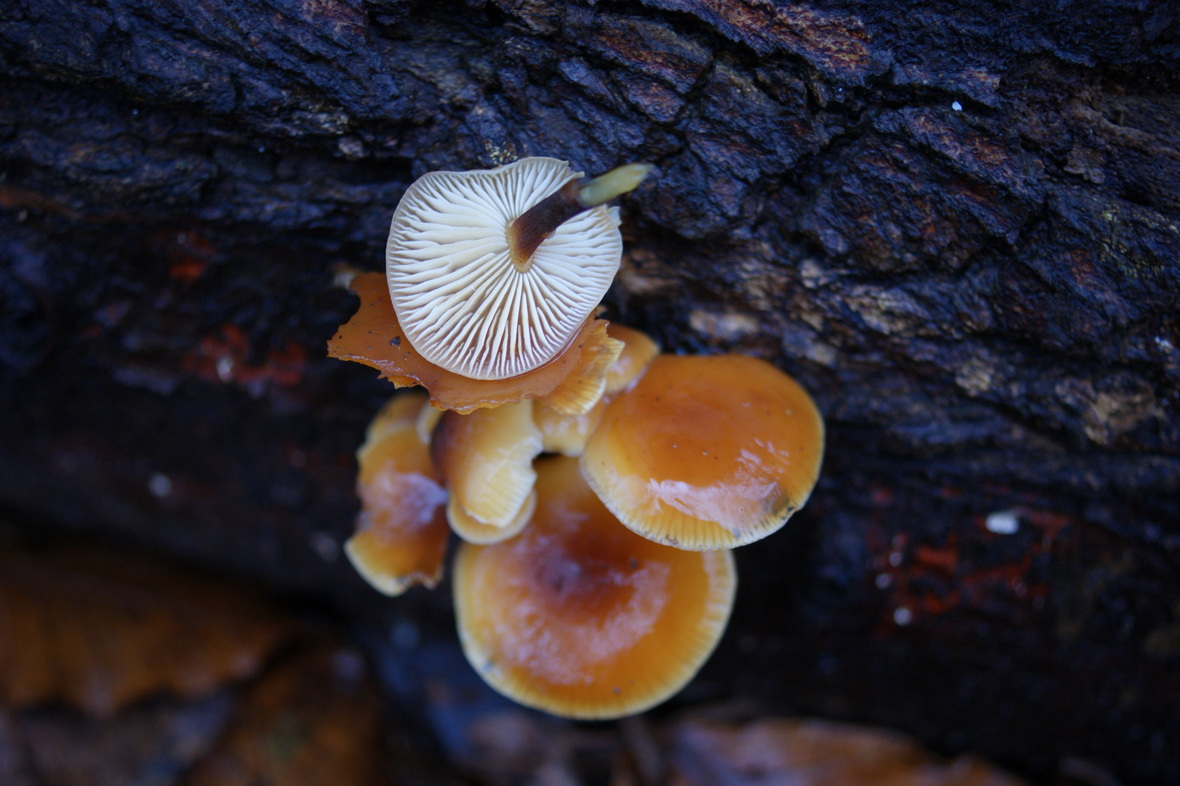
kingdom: Fungi
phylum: Basidiomycota
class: Agaricomycetes
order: Agaricales
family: Physalacriaceae
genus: Flammulina
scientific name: Flammulina velutipes
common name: gul fløjlsfod
